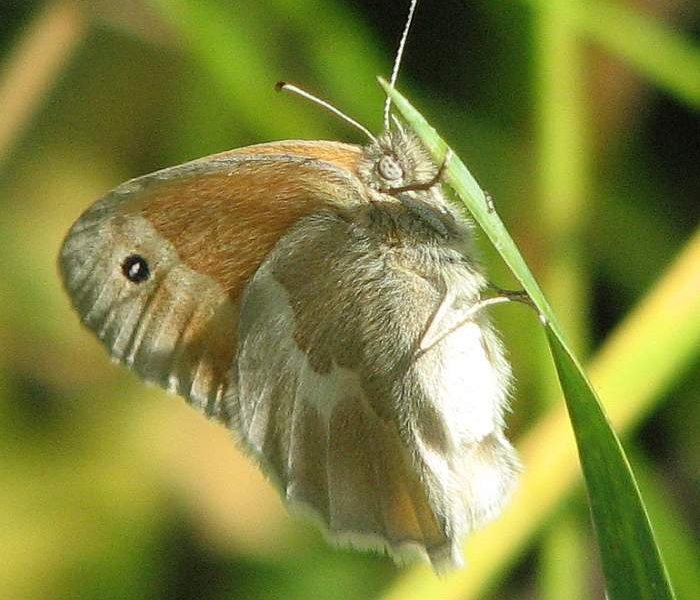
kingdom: Animalia
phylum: Arthropoda
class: Insecta
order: Lepidoptera
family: Nymphalidae
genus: Coenonympha
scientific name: Coenonympha tullia
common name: Large Heath
